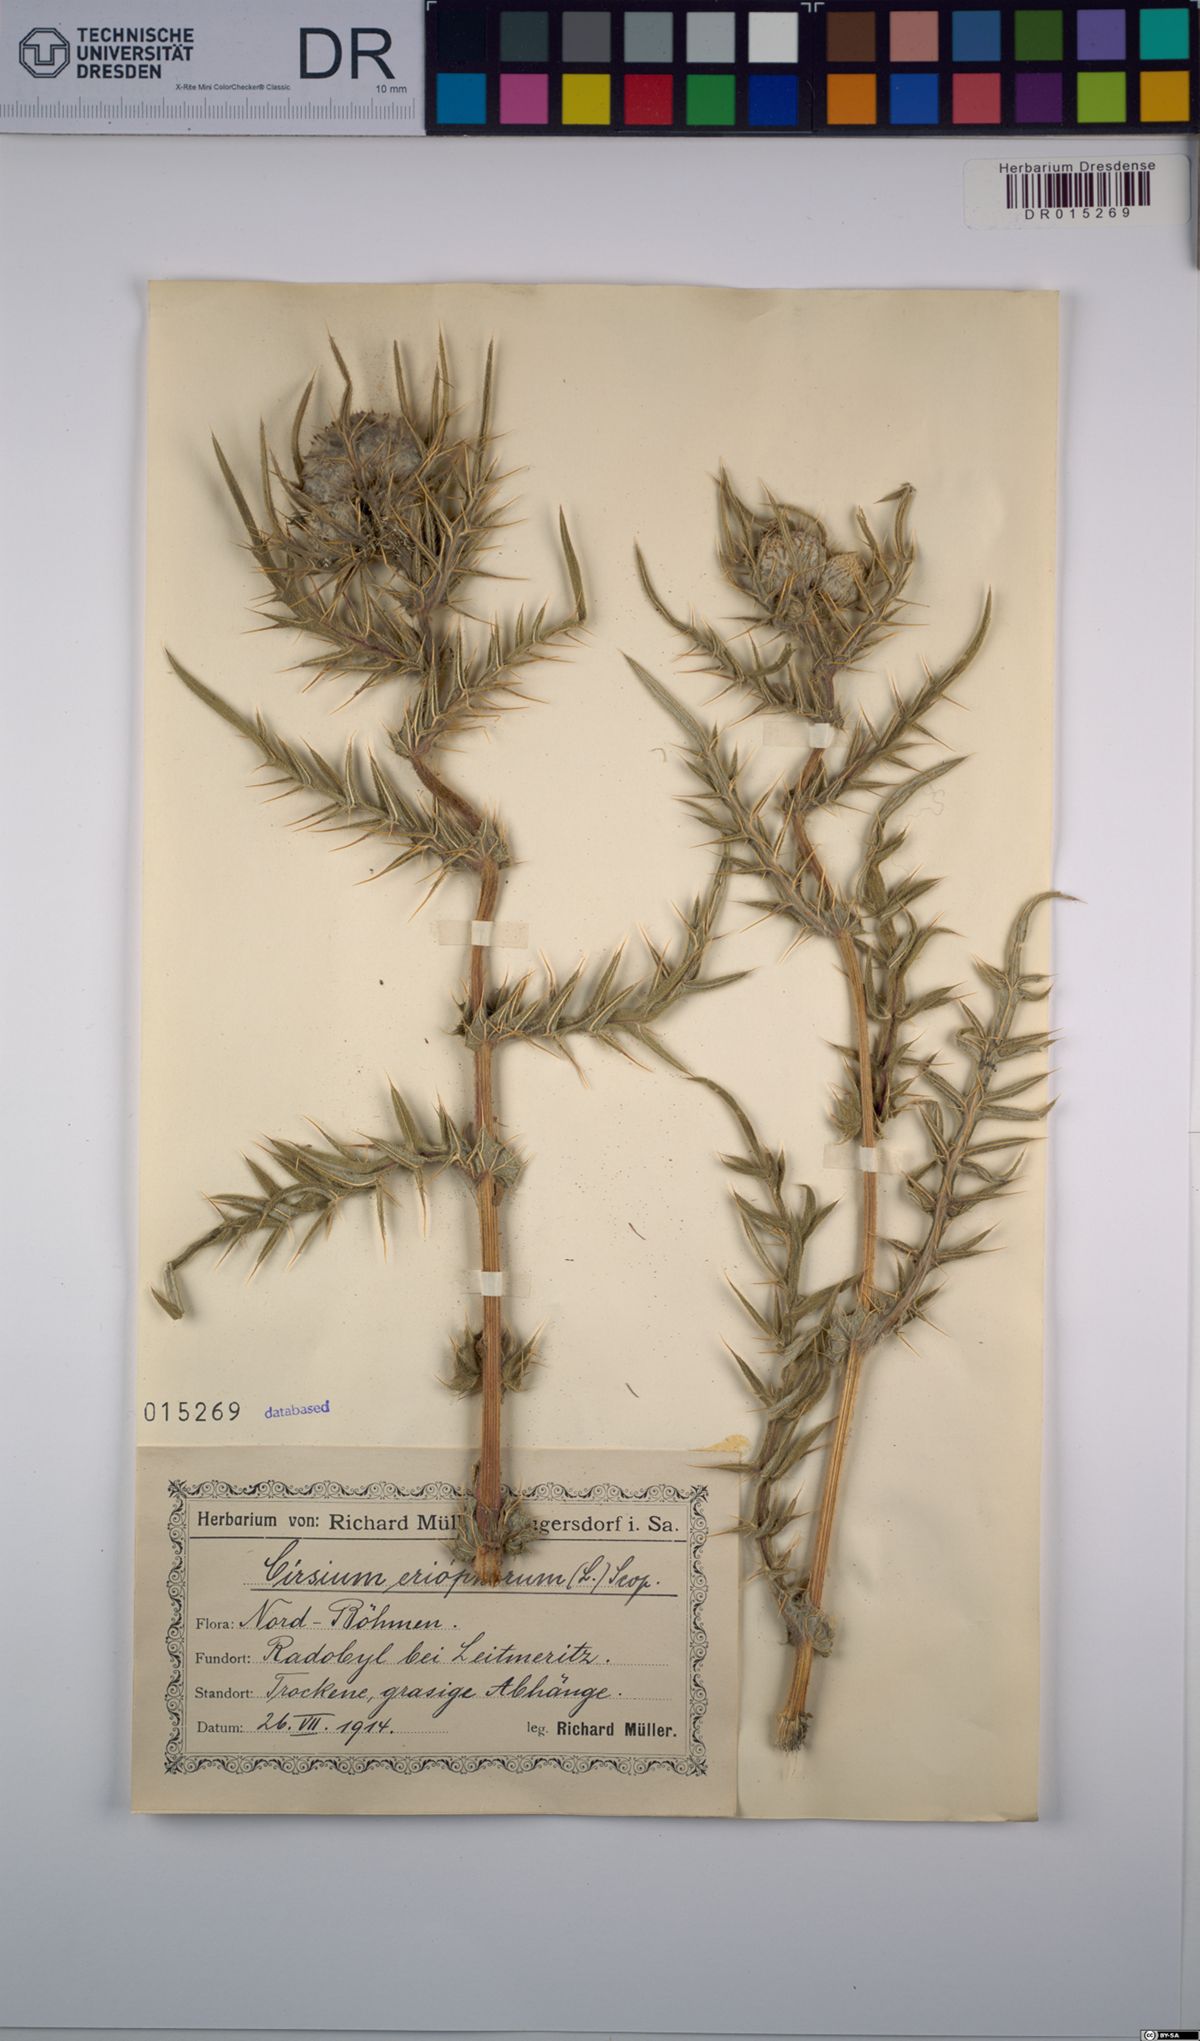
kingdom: Plantae
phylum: Tracheophyta
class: Magnoliopsida
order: Asterales
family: Asteraceae
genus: Lophiolepis
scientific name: Lophiolepis eriophora
